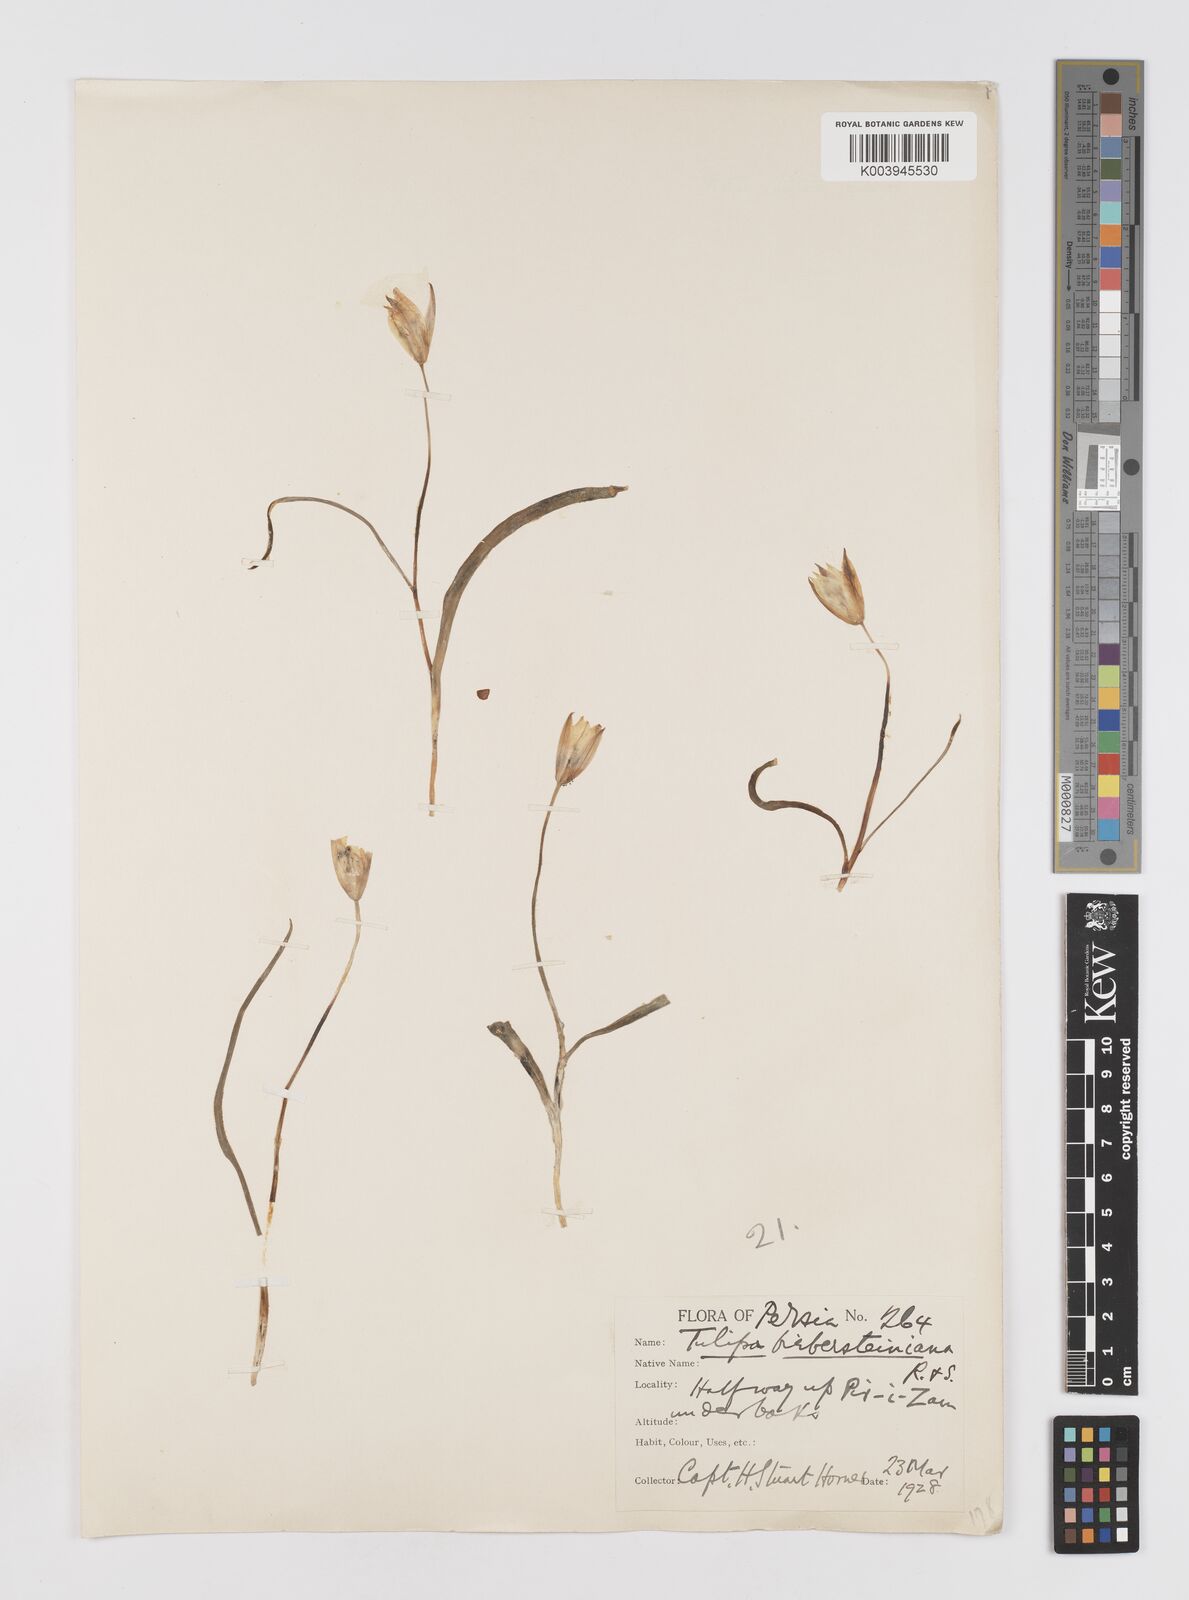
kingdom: Plantae
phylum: Tracheophyta
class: Liliopsida
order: Liliales
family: Liliaceae
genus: Tulipa
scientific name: Tulipa biflora
